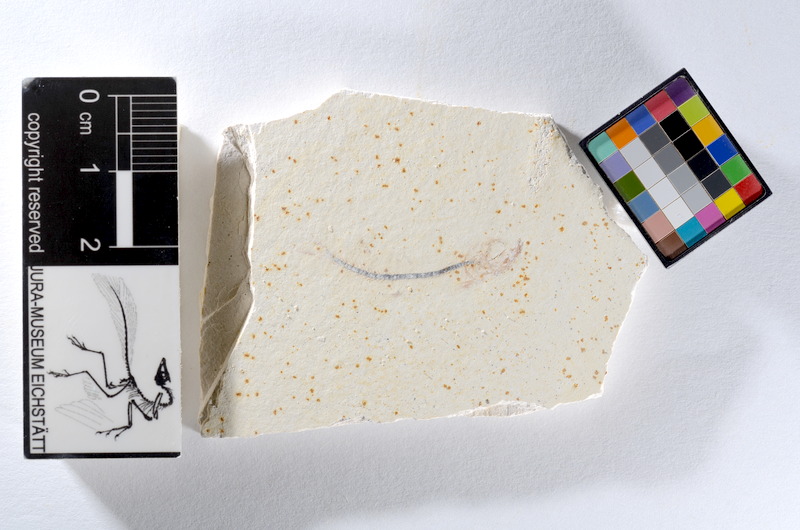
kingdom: Animalia
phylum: Chordata
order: Salmoniformes
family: Orthogonikleithridae
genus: Orthogonikleithrus
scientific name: Orthogonikleithrus hoelli
